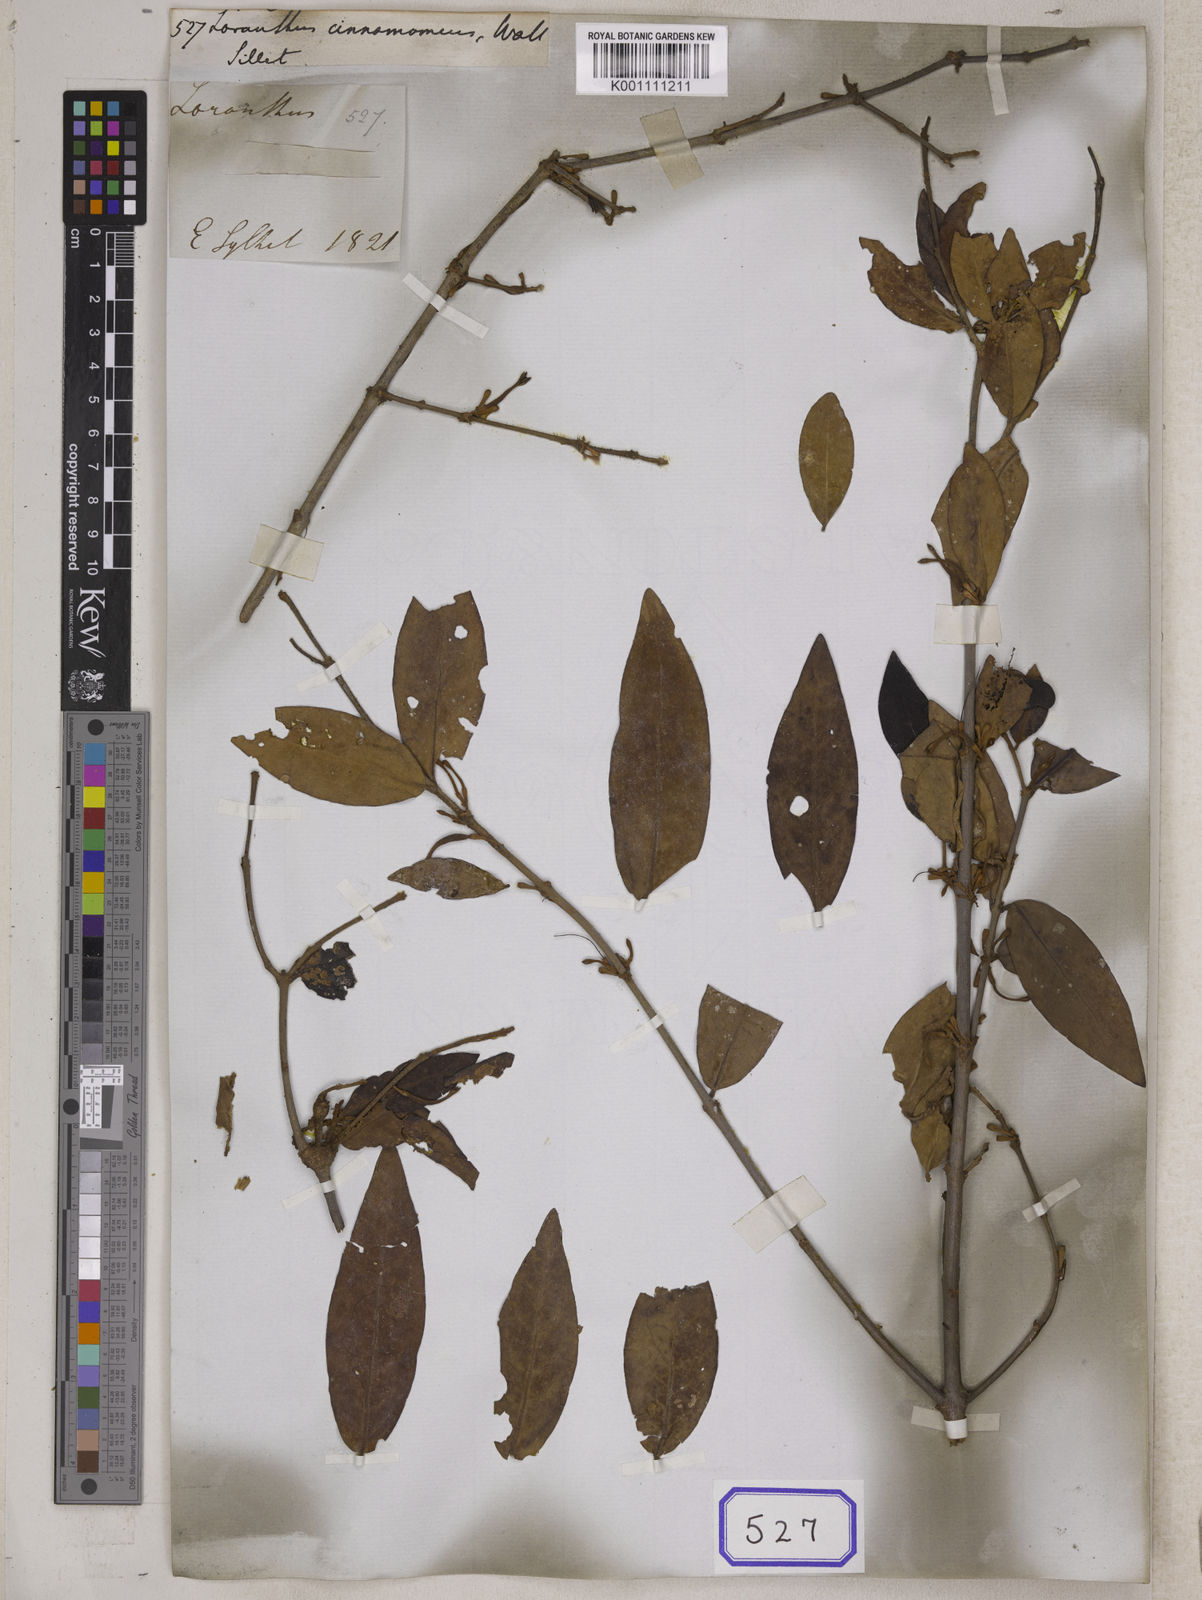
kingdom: Plantae
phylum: Tracheophyta
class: Magnoliopsida
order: Santalales
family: Loranthaceae
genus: Loranthus
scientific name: Loranthus
